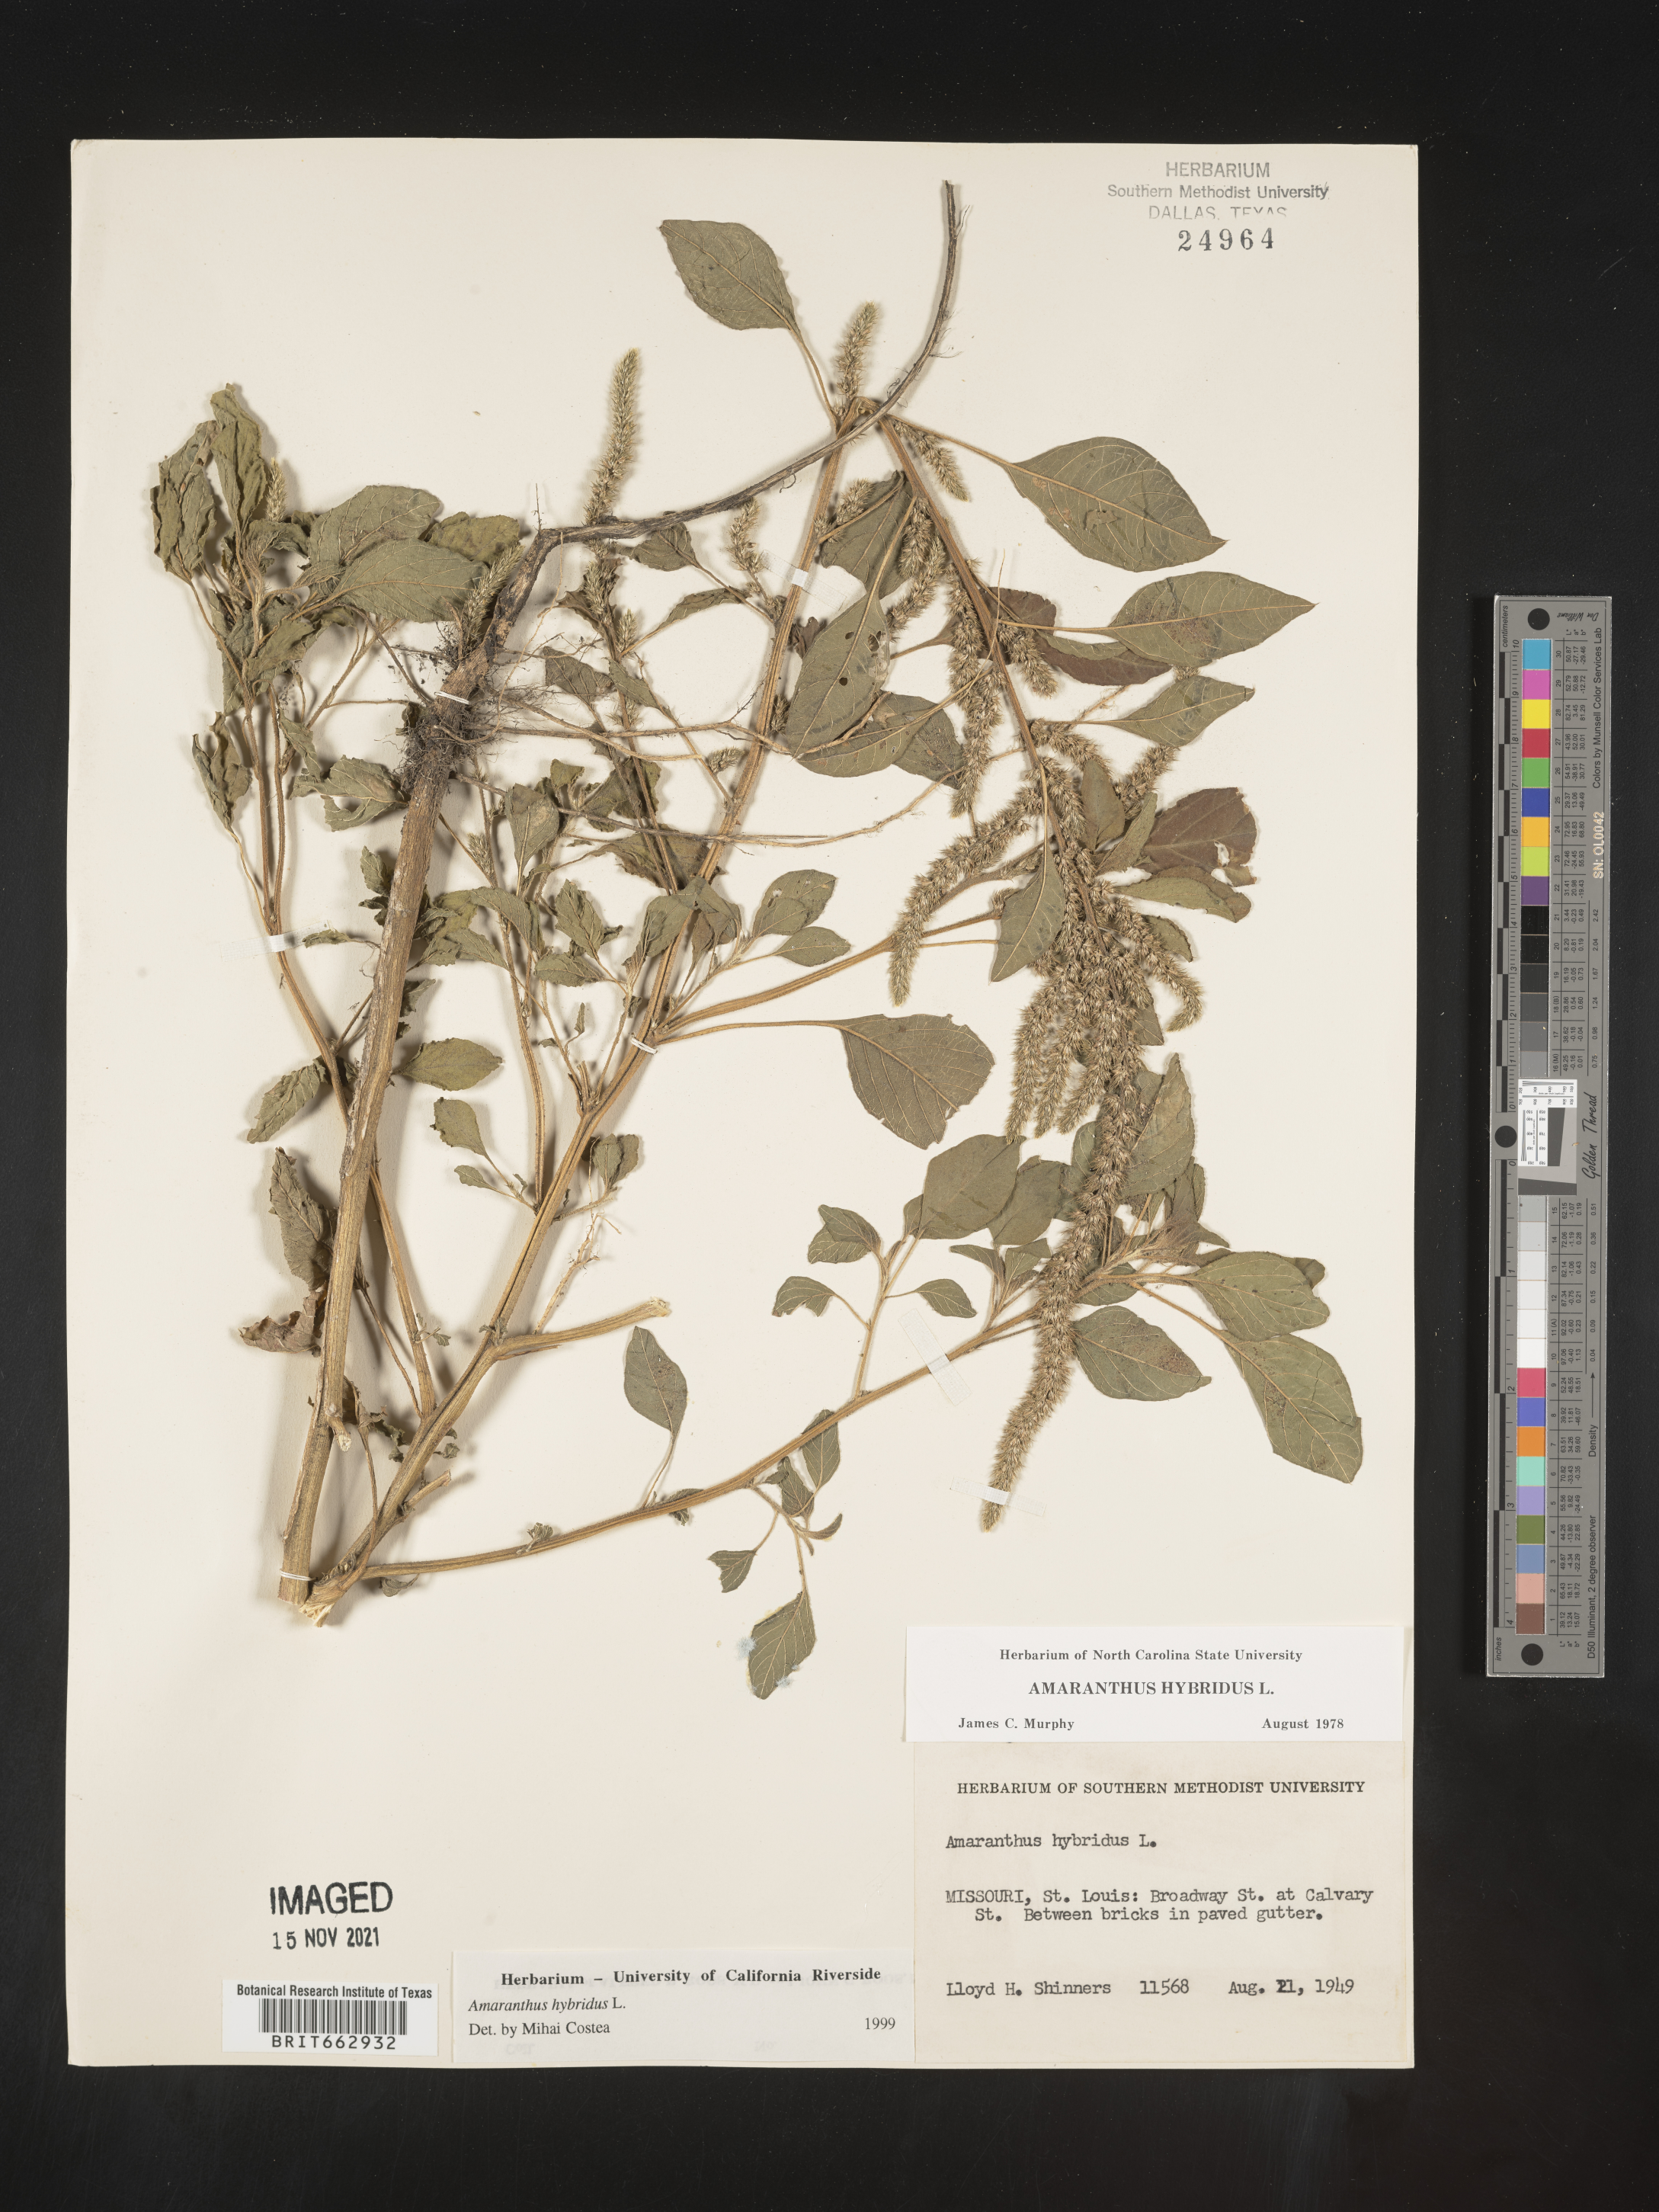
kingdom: Plantae
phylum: Tracheophyta
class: Magnoliopsida
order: Caryophyllales
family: Amaranthaceae
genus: Amaranthus
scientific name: Amaranthus hybridus
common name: Green amaranth
